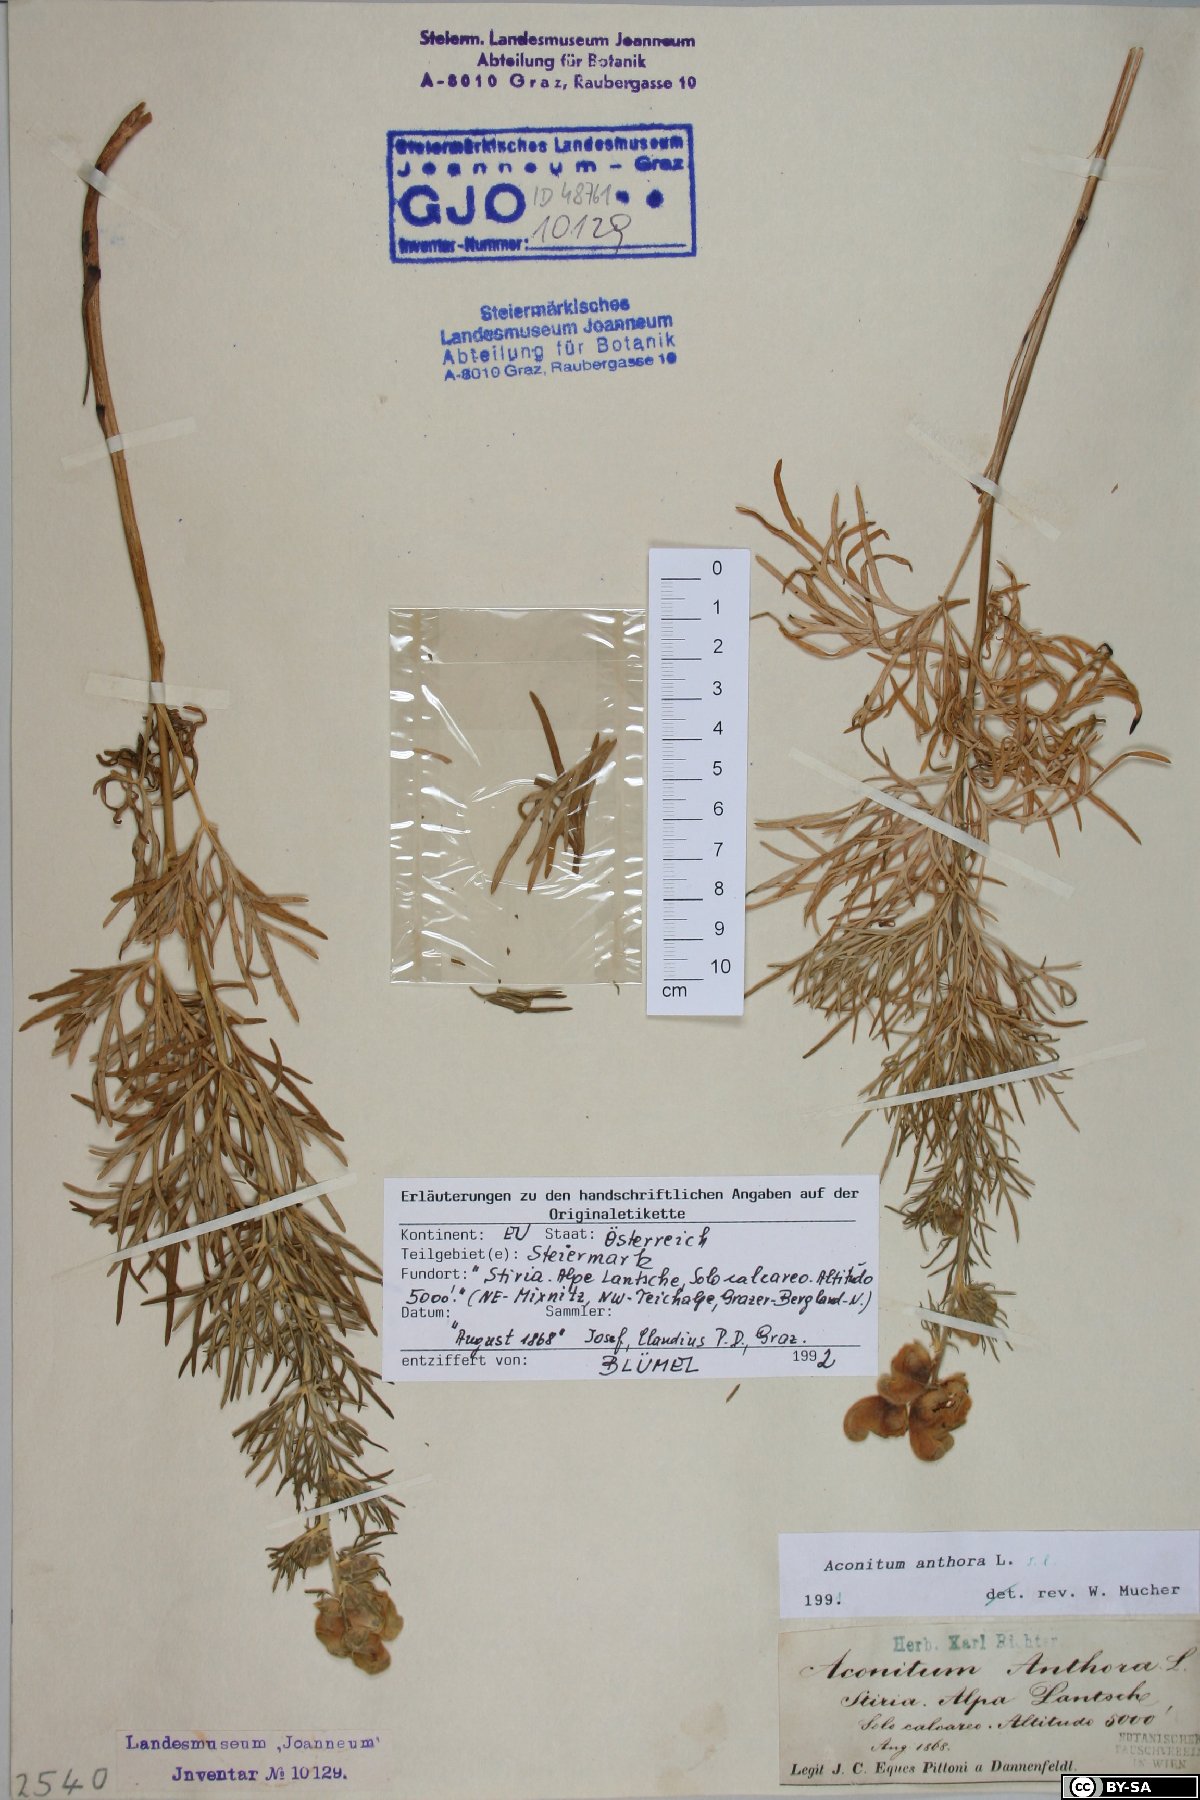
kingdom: Plantae
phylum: Tracheophyta
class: Magnoliopsida
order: Ranunculales
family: Ranunculaceae
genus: Aconitum
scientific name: Aconitum anthora
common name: Yellow monkshood
